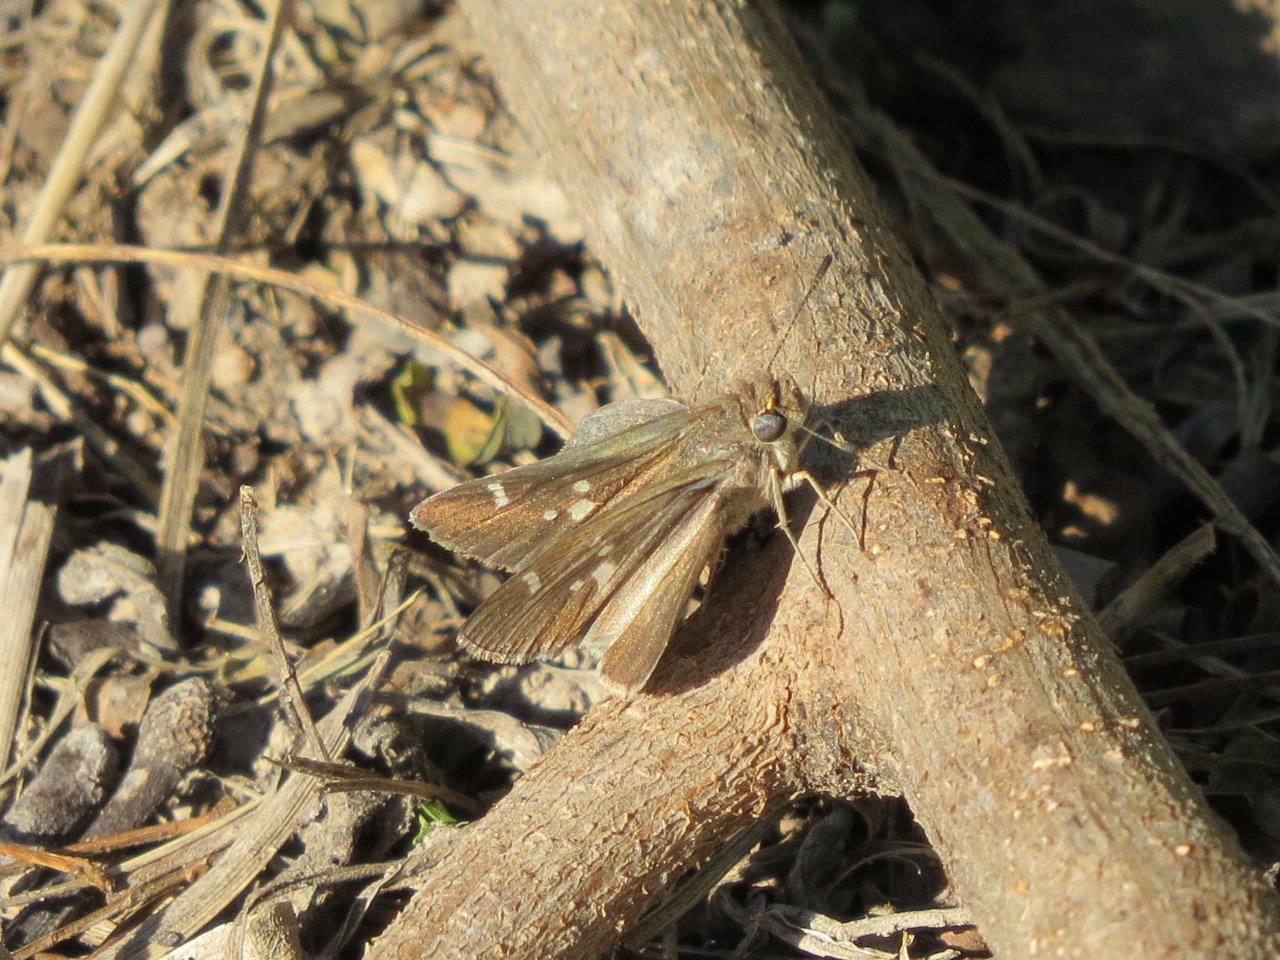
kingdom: Animalia
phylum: Arthropoda
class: Insecta
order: Lepidoptera
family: Hesperiidae
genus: Lerodea
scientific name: Lerodea eufala
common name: Eufala Skipper
